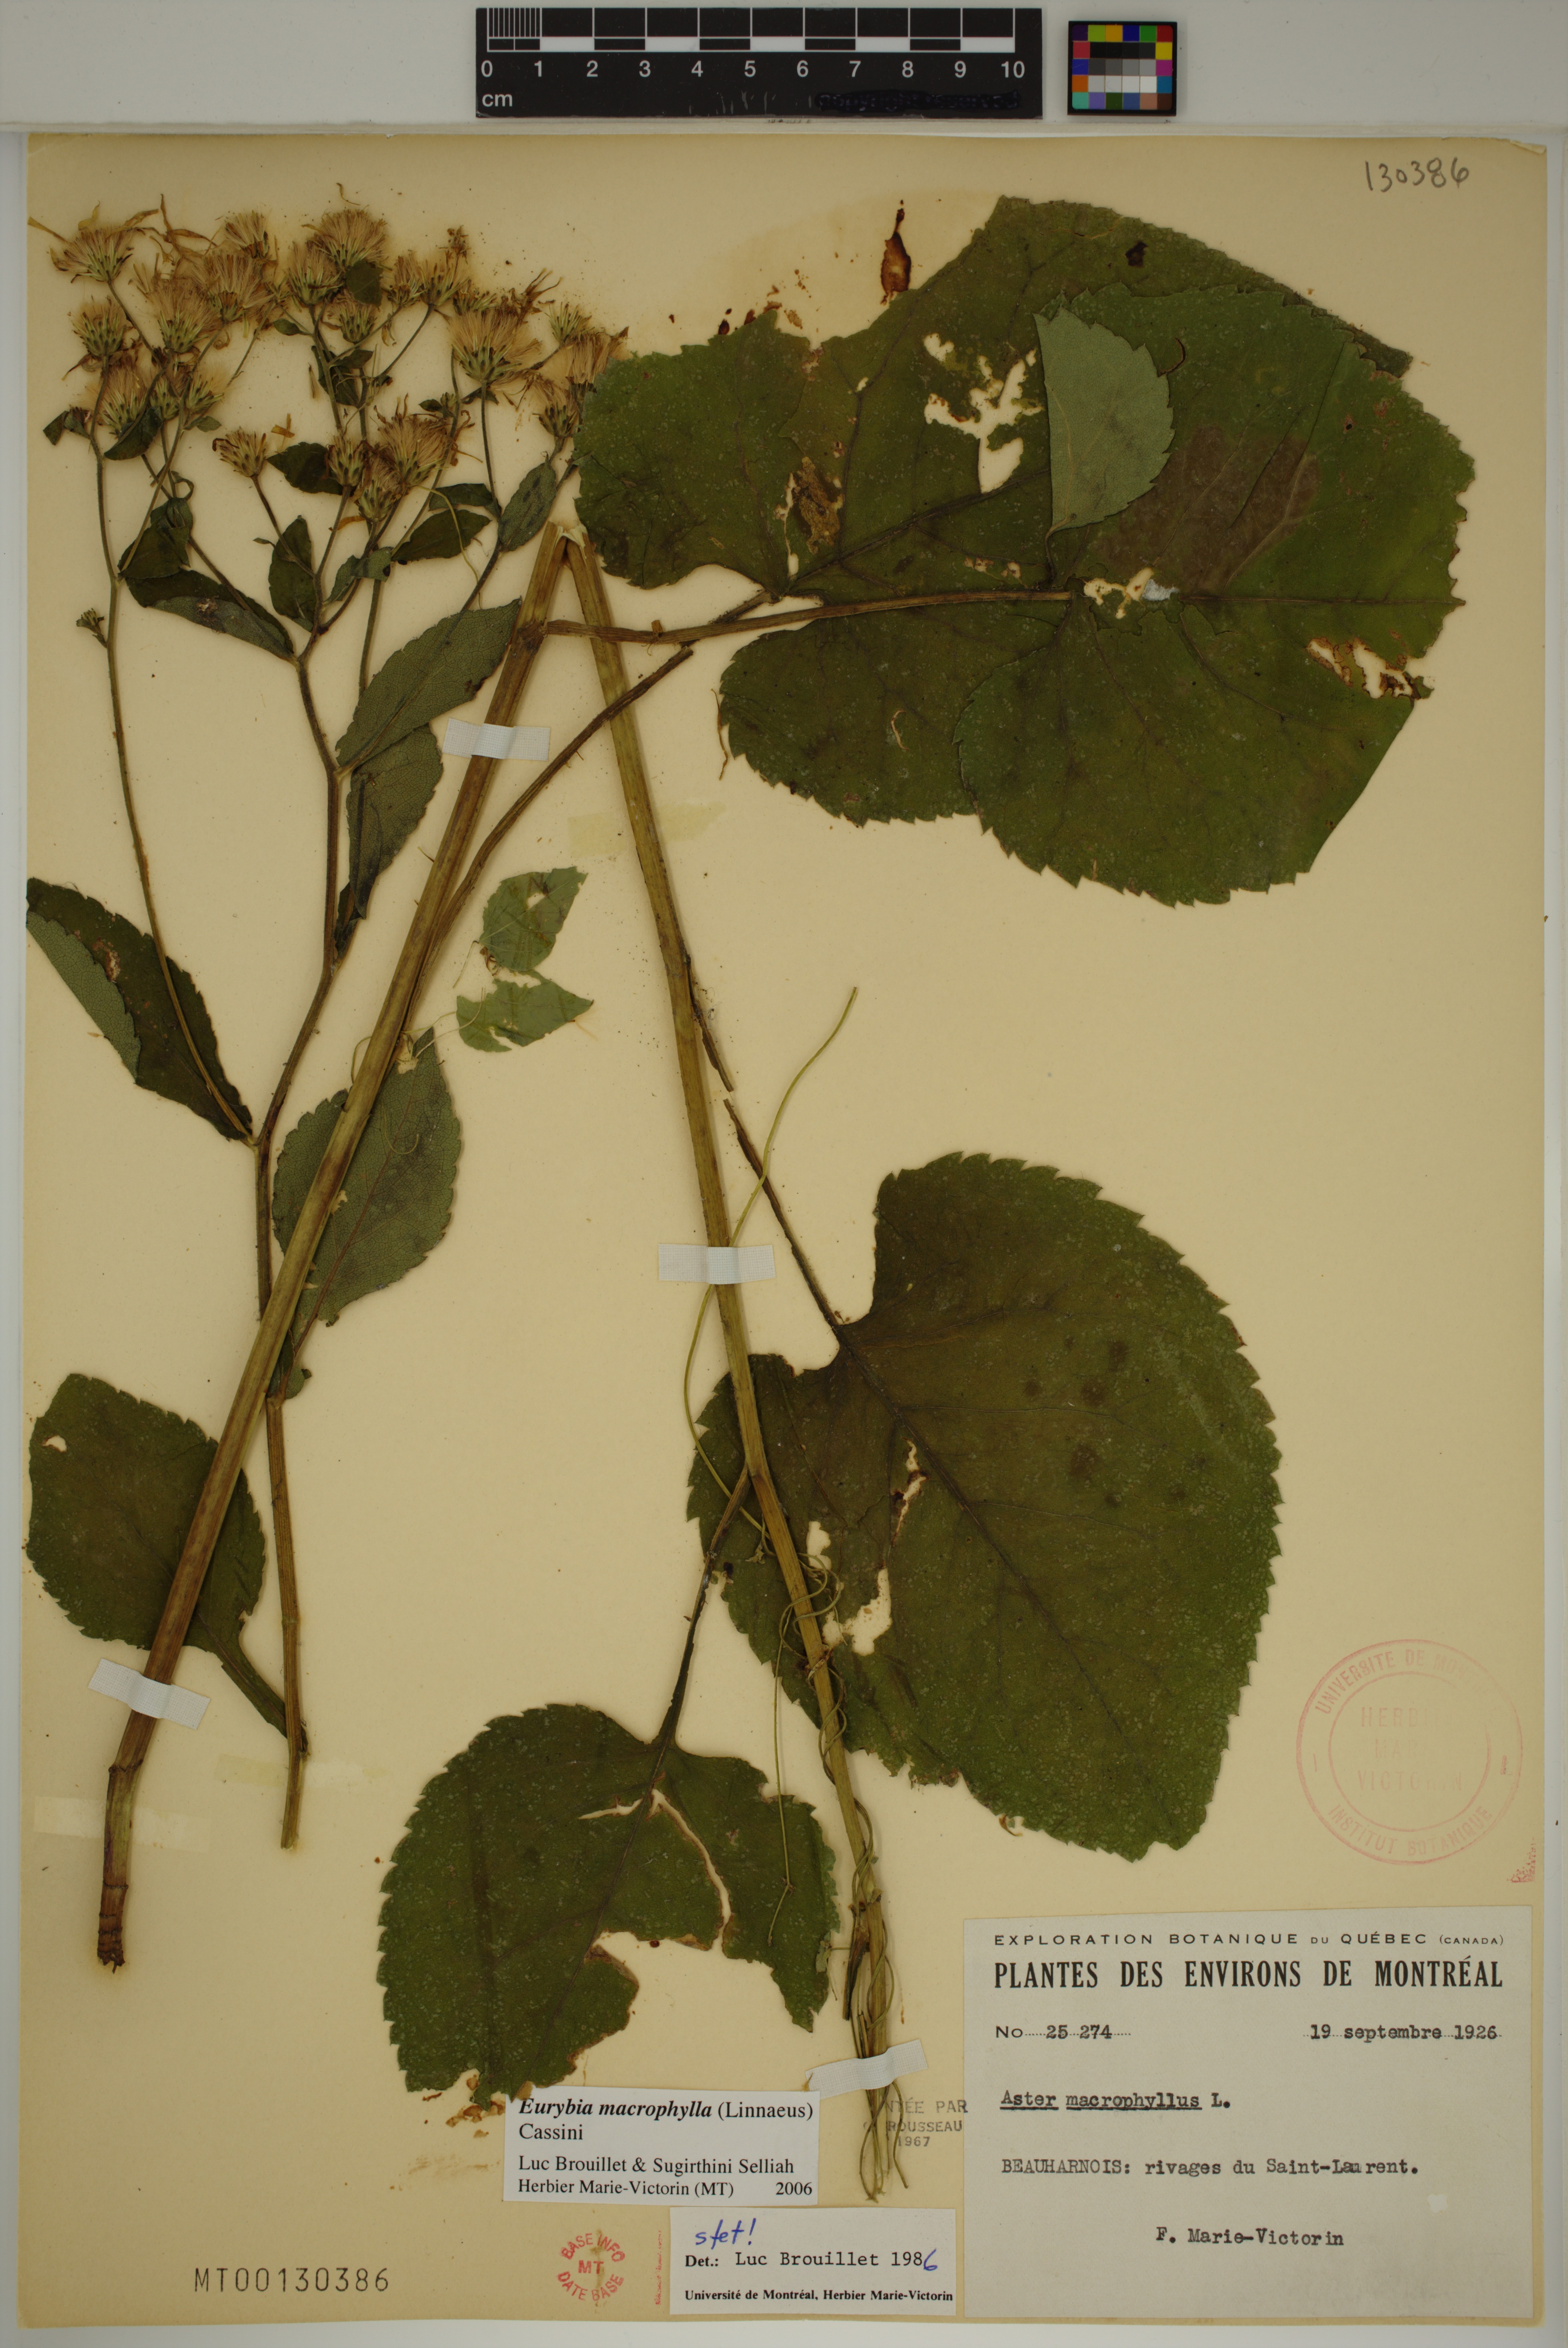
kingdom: Plantae
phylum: Tracheophyta
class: Magnoliopsida
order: Asterales
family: Asteraceae
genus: Eurybia
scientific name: Eurybia macrophylla
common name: Big-leaved aster
